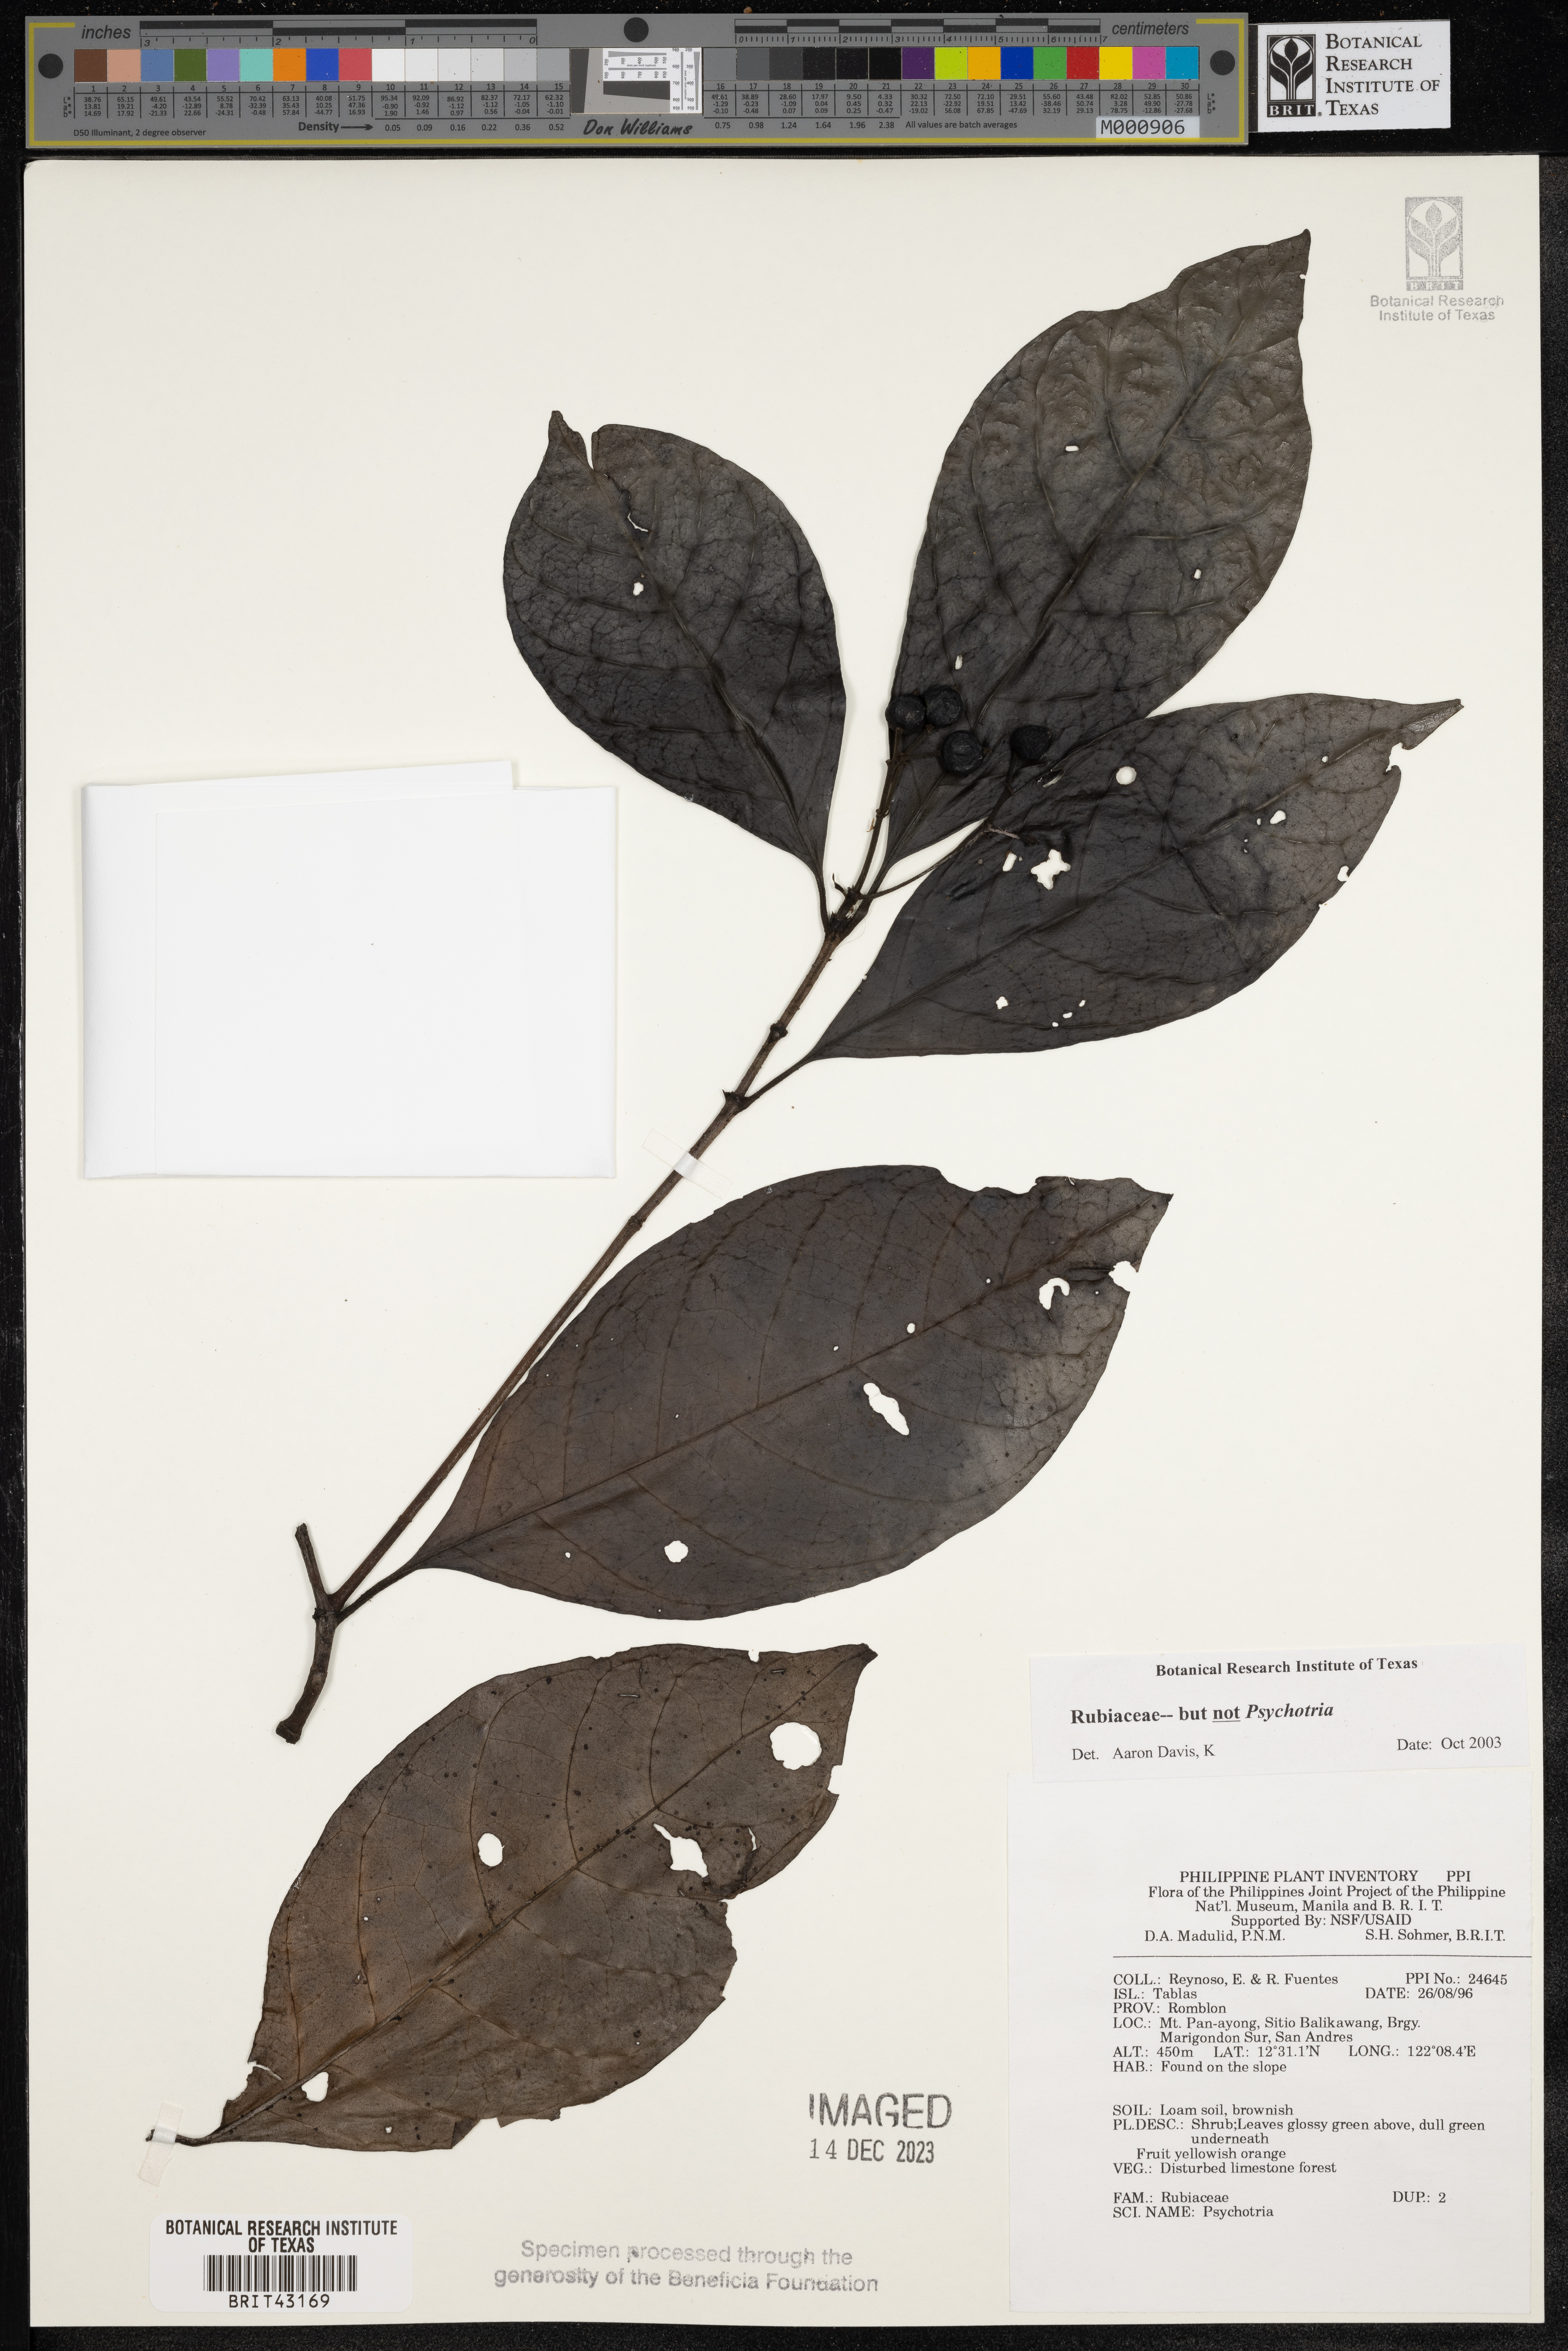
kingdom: Plantae
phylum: Tracheophyta
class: Magnoliopsida
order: Gentianales
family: Rubiaceae
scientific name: Rubiaceae
